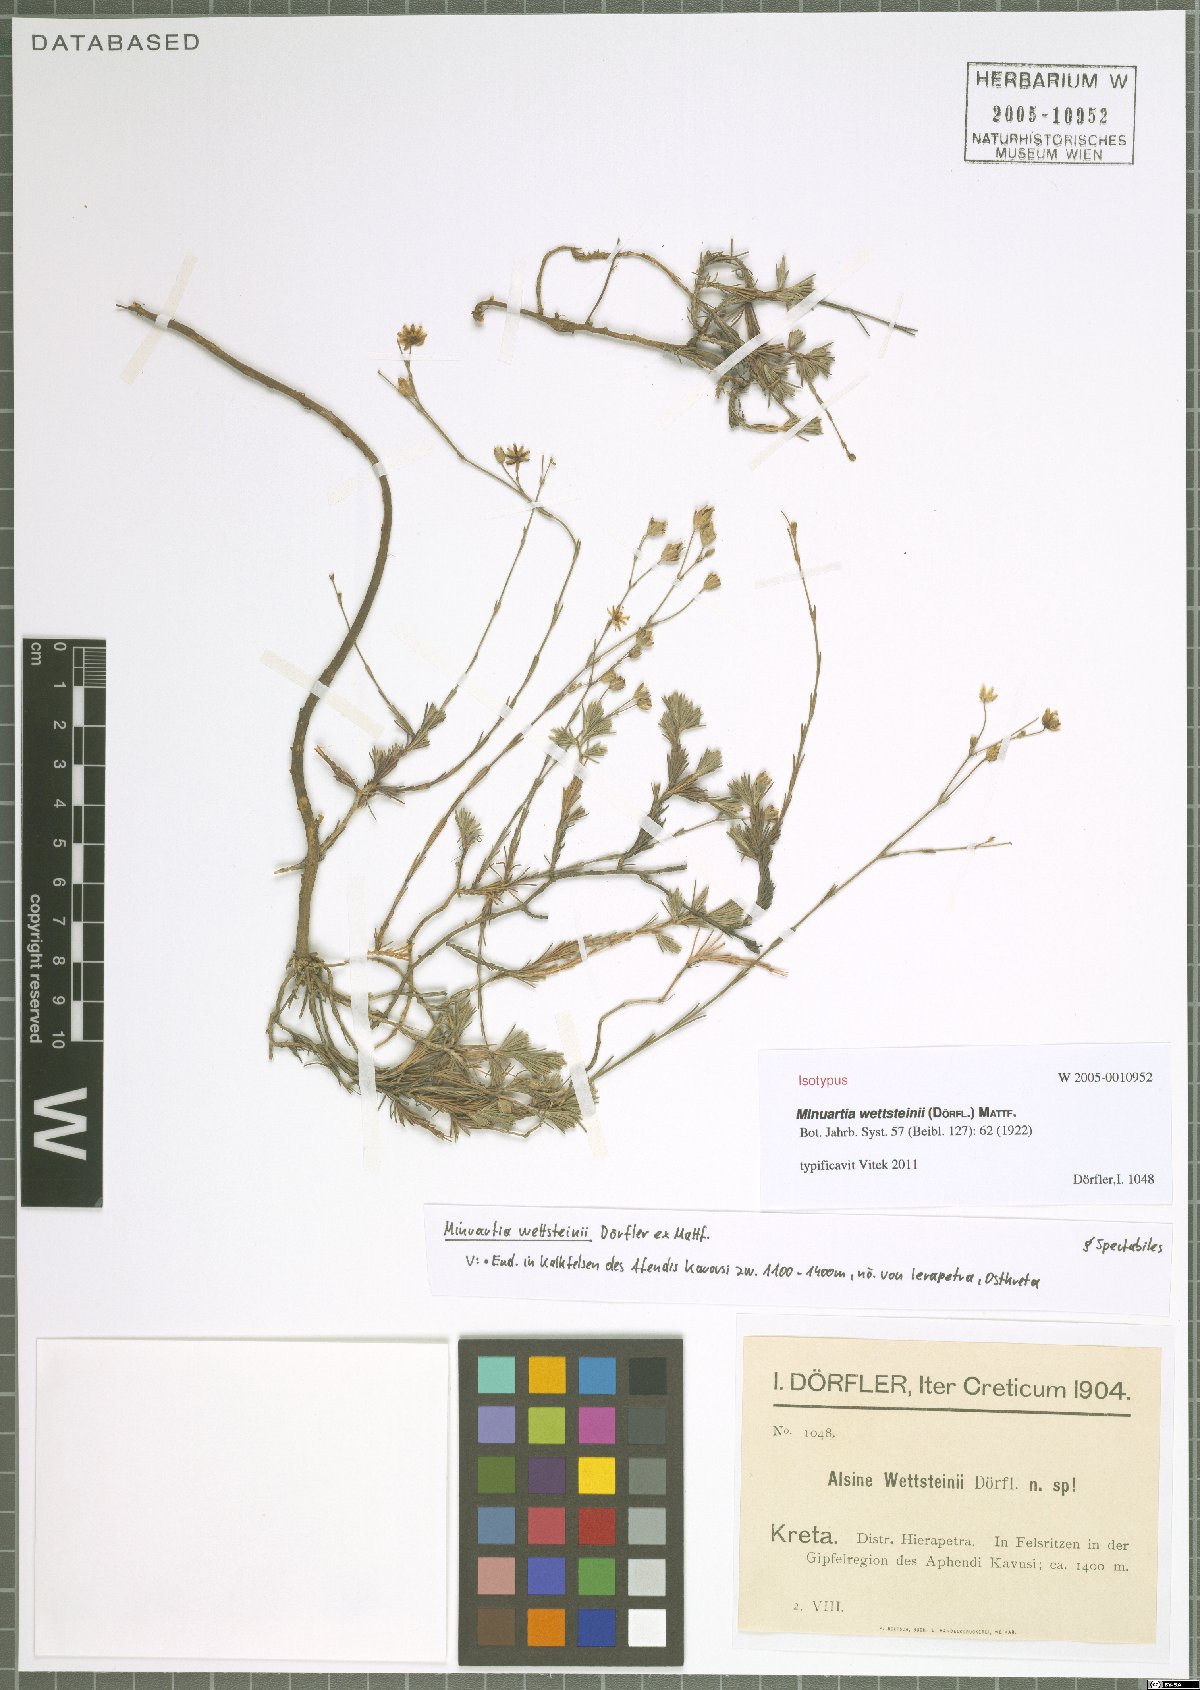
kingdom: Plantae
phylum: Tracheophyta
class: Magnoliopsida
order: Caryophyllales
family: Caryophyllaceae
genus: Cherleria
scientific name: Cherleria wettsteinii
